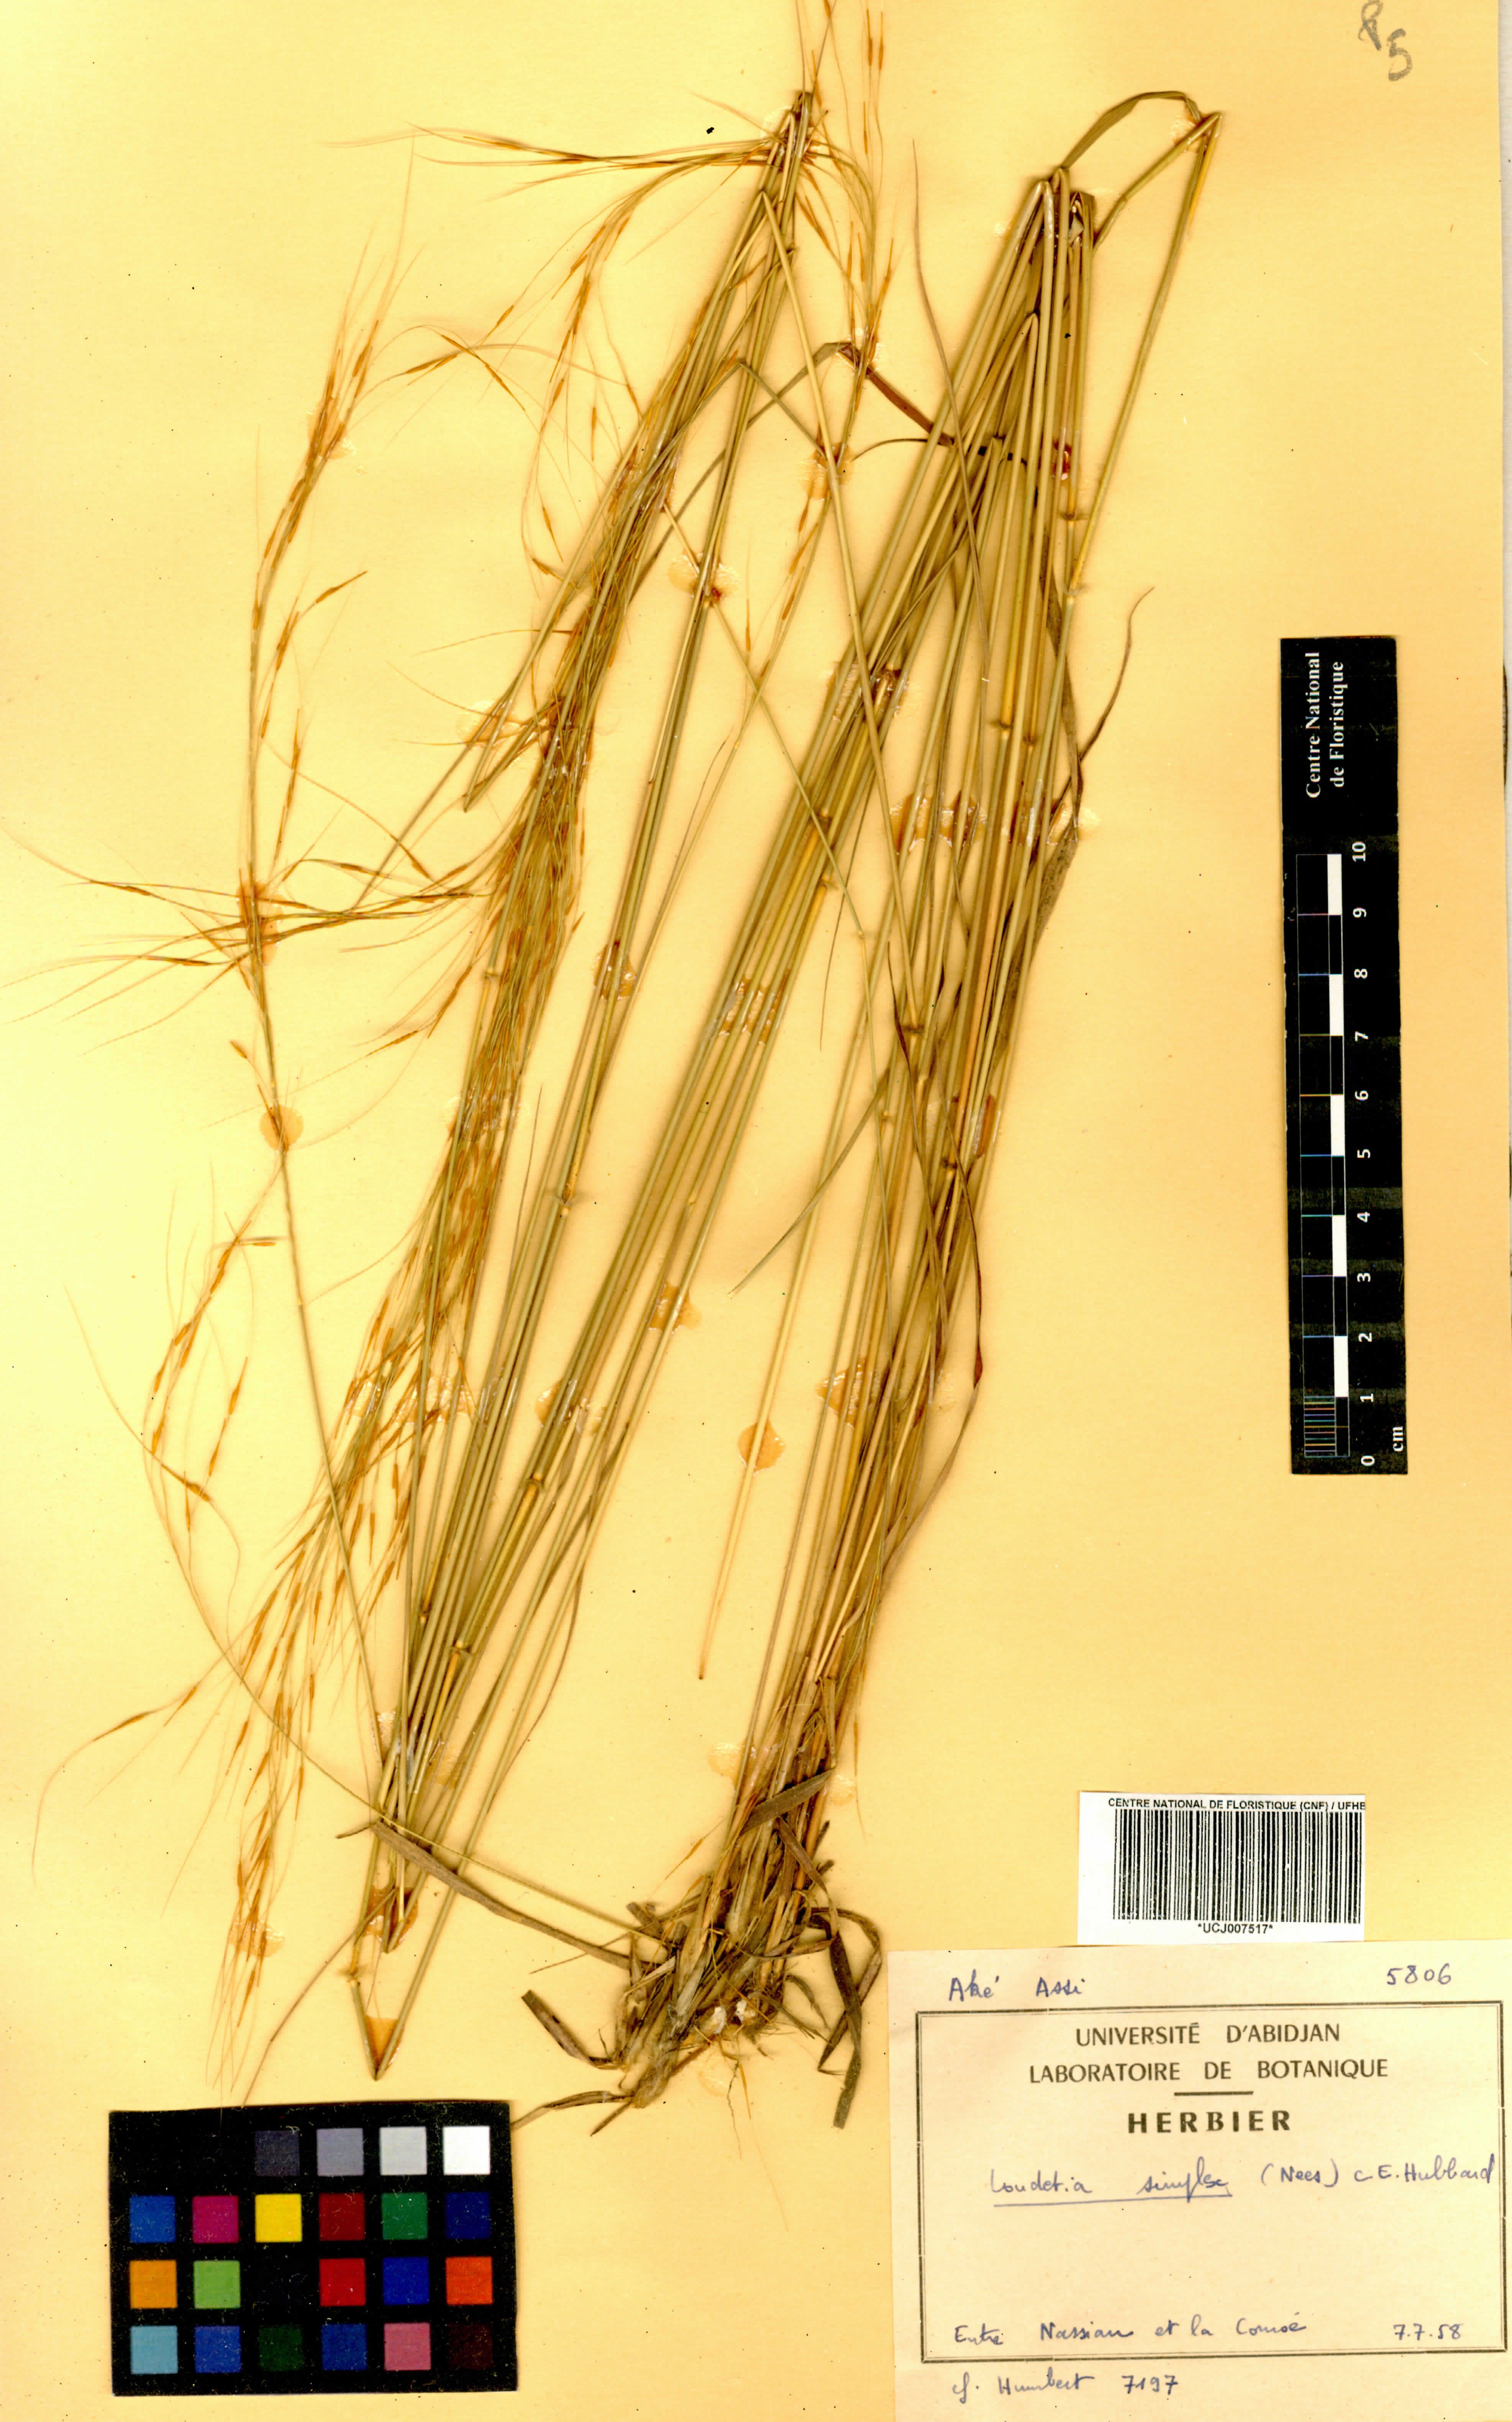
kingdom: Plantae
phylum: Tracheophyta
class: Liliopsida
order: Poales
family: Poaceae
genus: Loudetia
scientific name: Loudetia simplex
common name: Common russet grass
